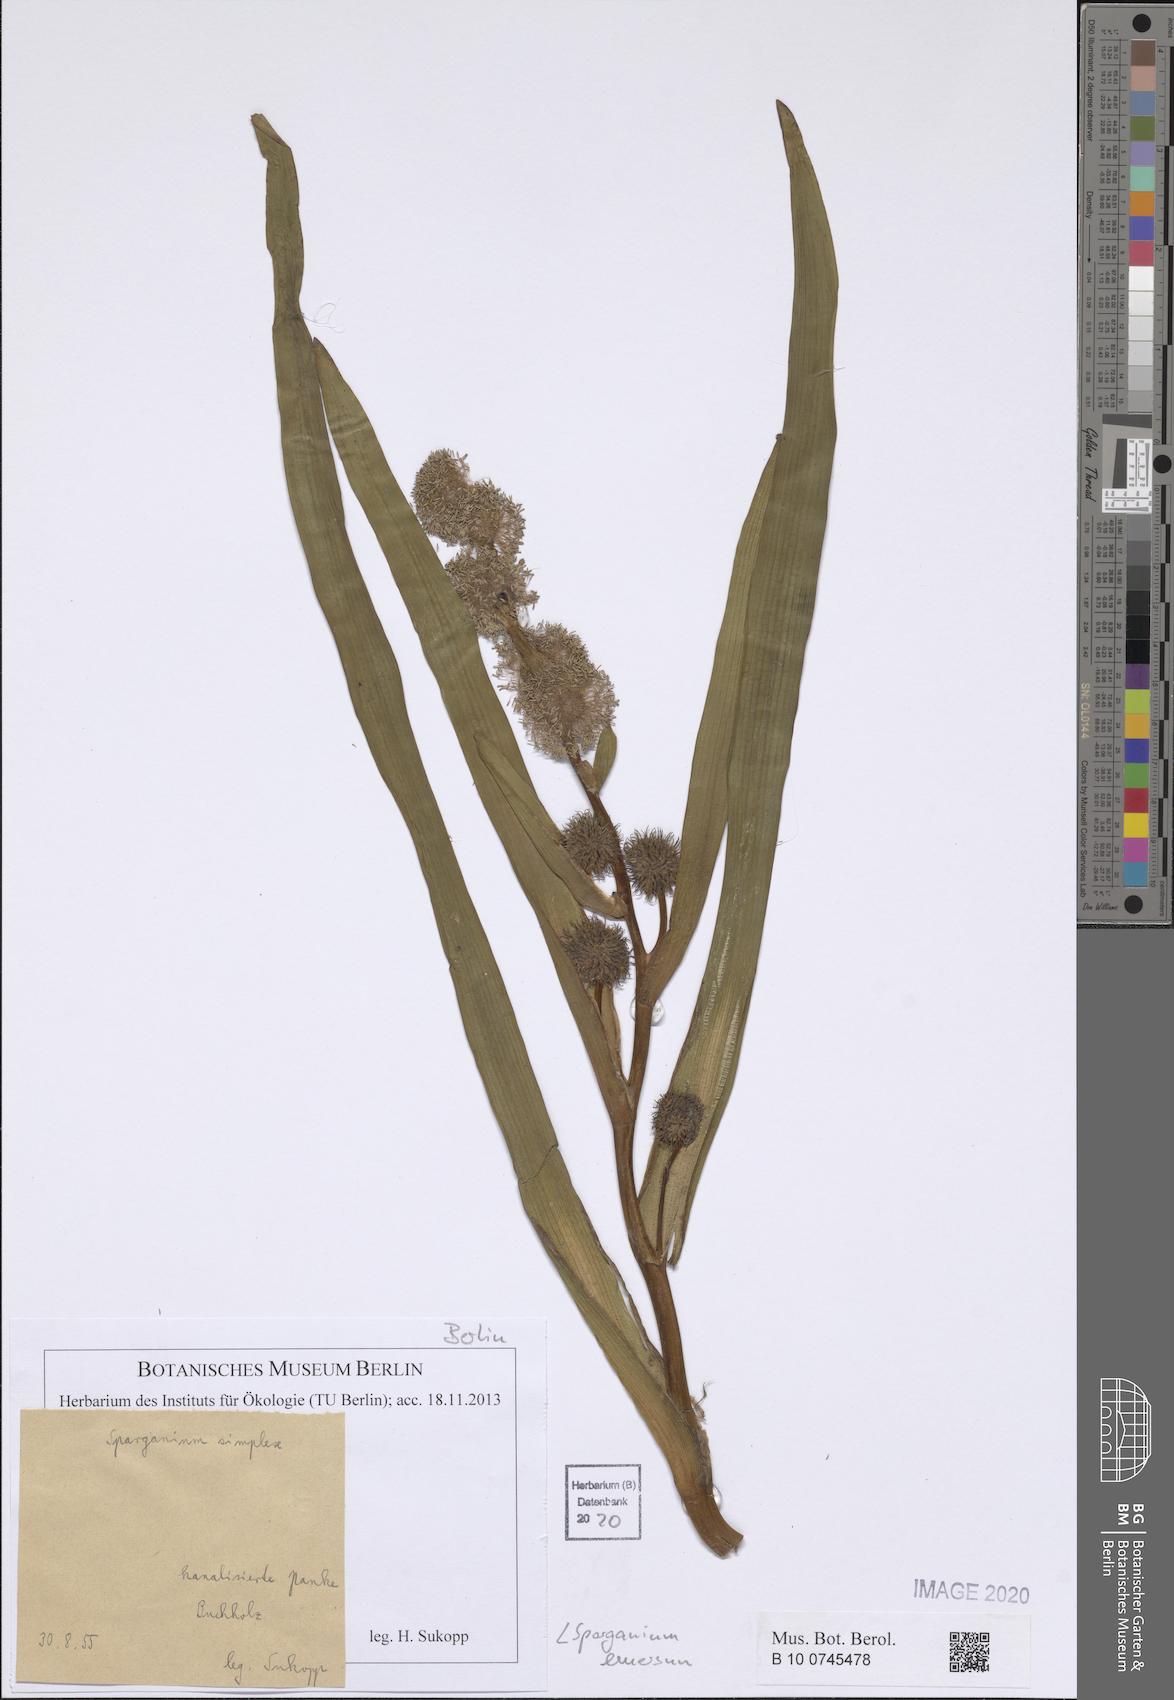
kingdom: Plantae
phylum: Tracheophyta
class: Liliopsida
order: Poales
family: Typhaceae
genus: Sparganium
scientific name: Sparganium emersum
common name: Unbranched bur-reed
